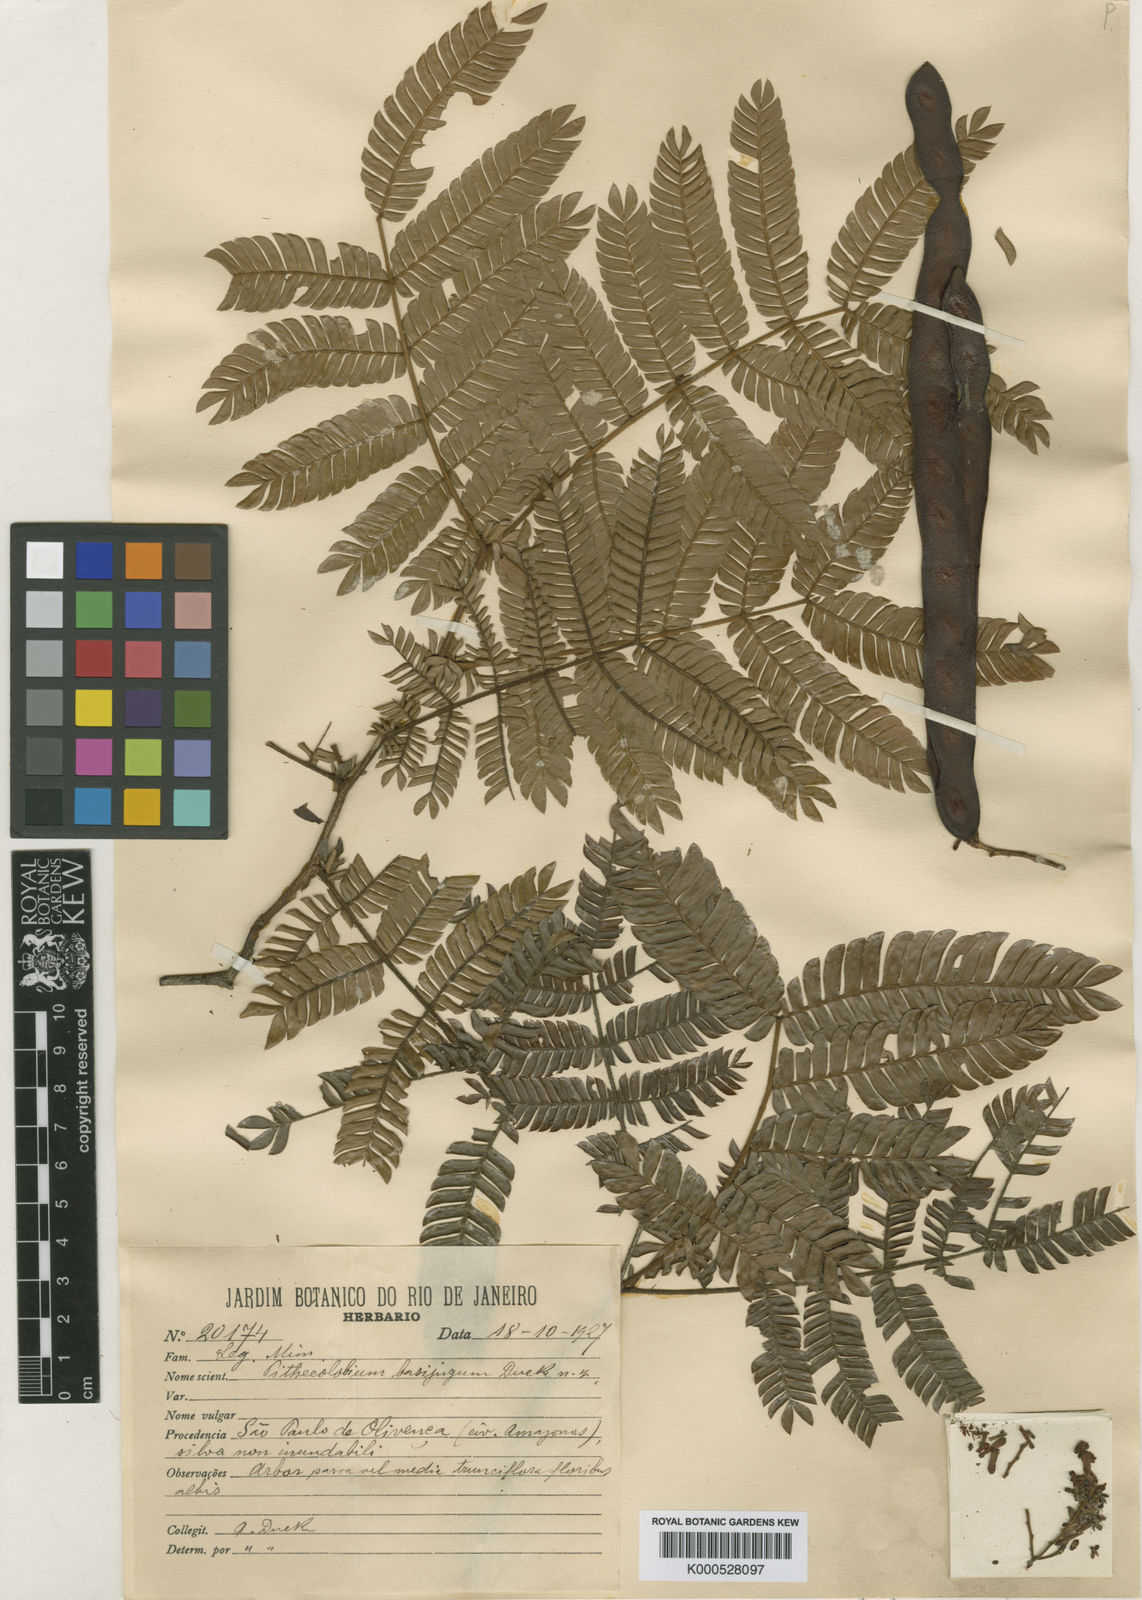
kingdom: Plantae
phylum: Tracheophyta
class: Magnoliopsida
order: Fabales
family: Fabaceae
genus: Zygia
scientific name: Zygia basijuga
